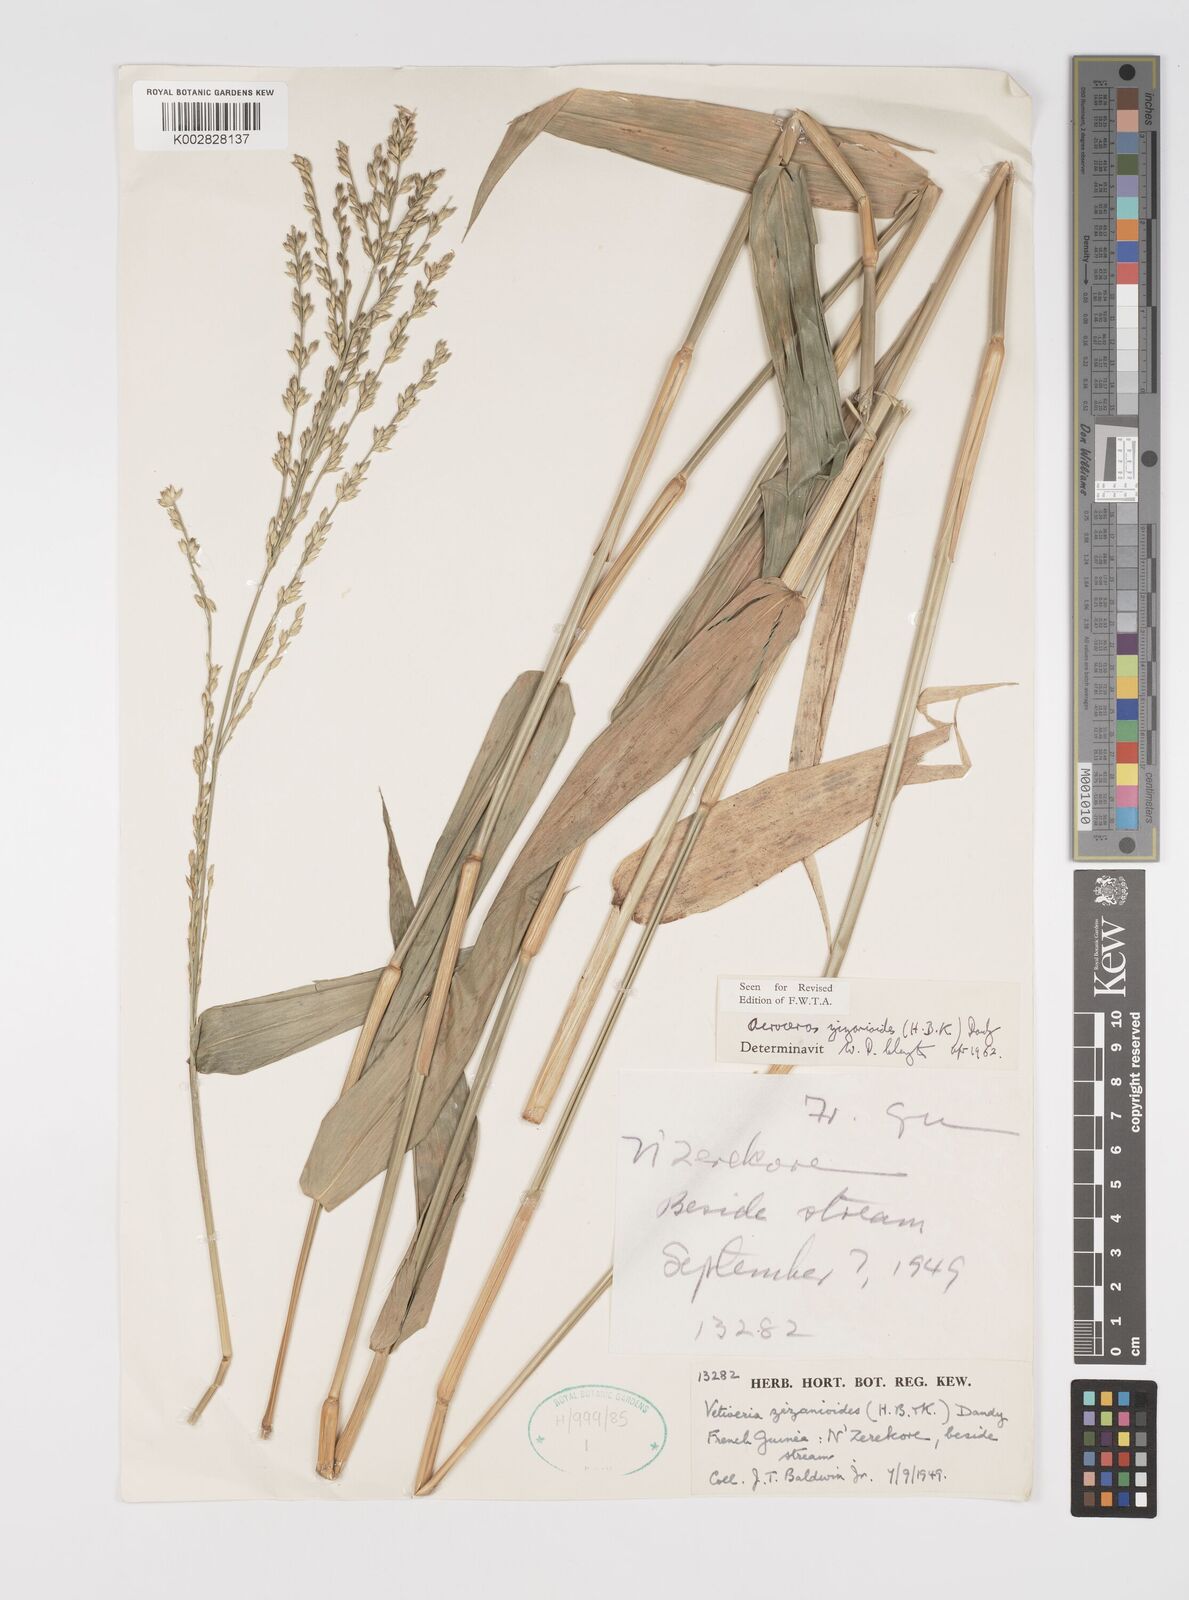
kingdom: Plantae
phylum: Tracheophyta
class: Liliopsida
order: Poales
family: Poaceae
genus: Acroceras
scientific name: Acroceras zizanioides
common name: Oat grass
